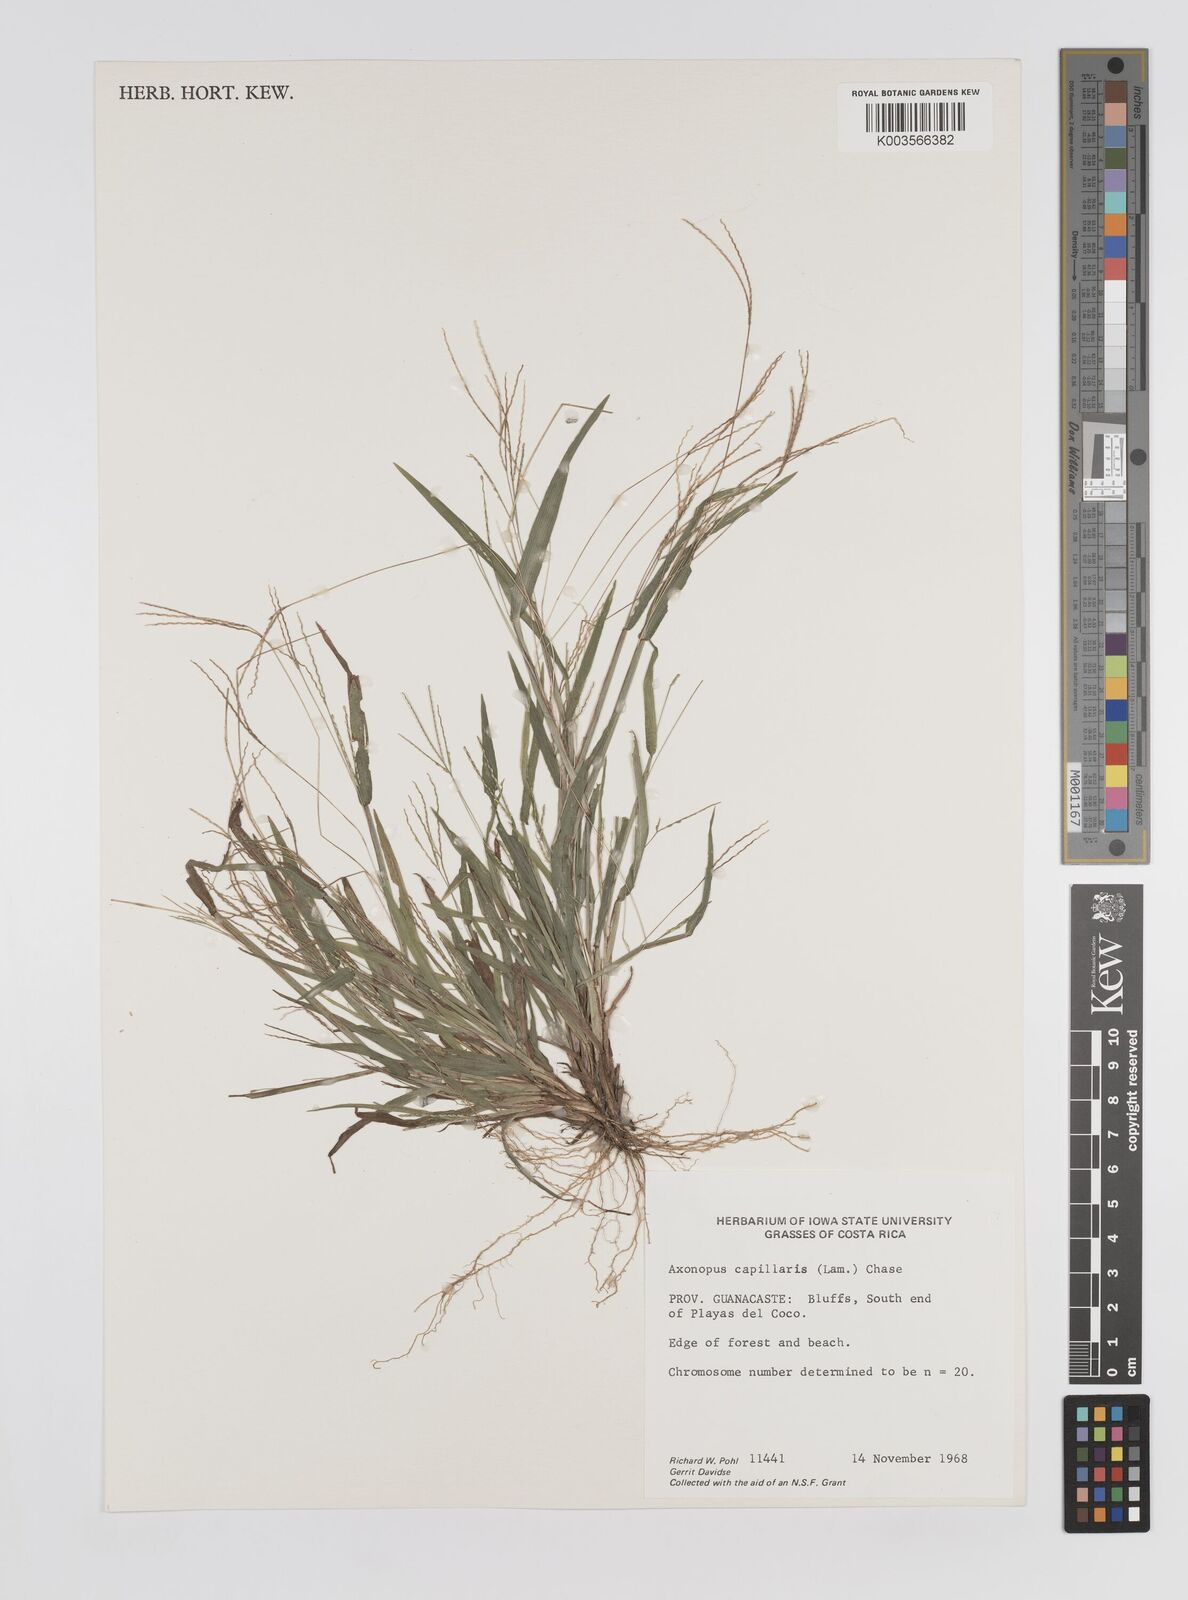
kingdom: Plantae
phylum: Tracheophyta
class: Liliopsida
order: Poales
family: Poaceae
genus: Axonopus
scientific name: Axonopus capillaris
